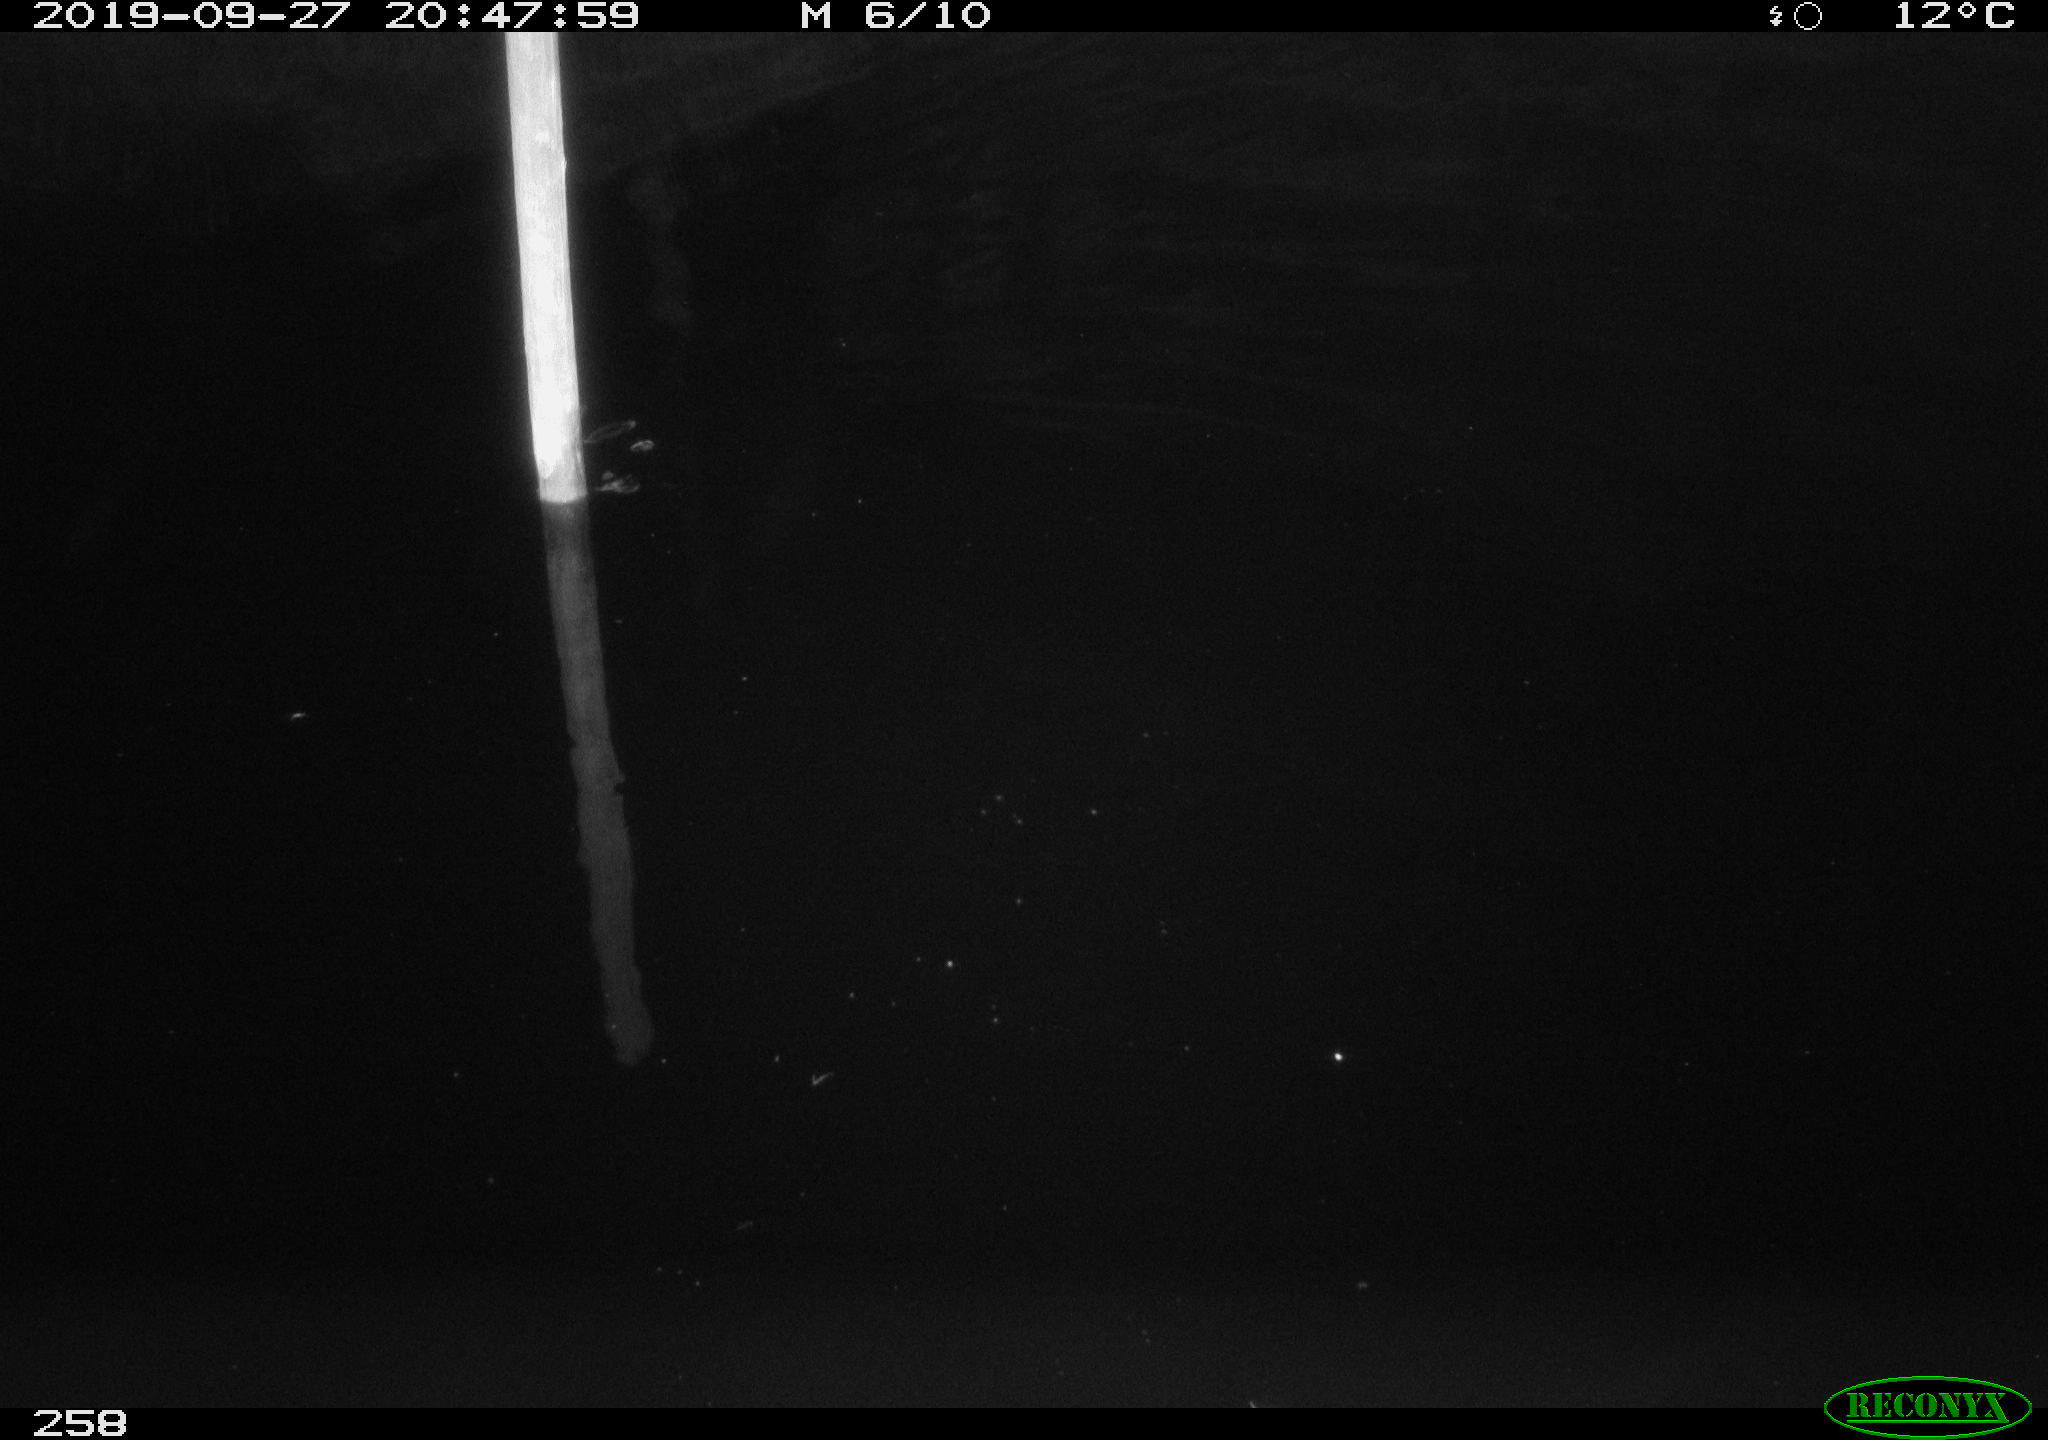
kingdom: Animalia
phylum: Chordata
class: Aves
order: Anseriformes
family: Anatidae
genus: Anas
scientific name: Anas platyrhynchos
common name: Mallard
